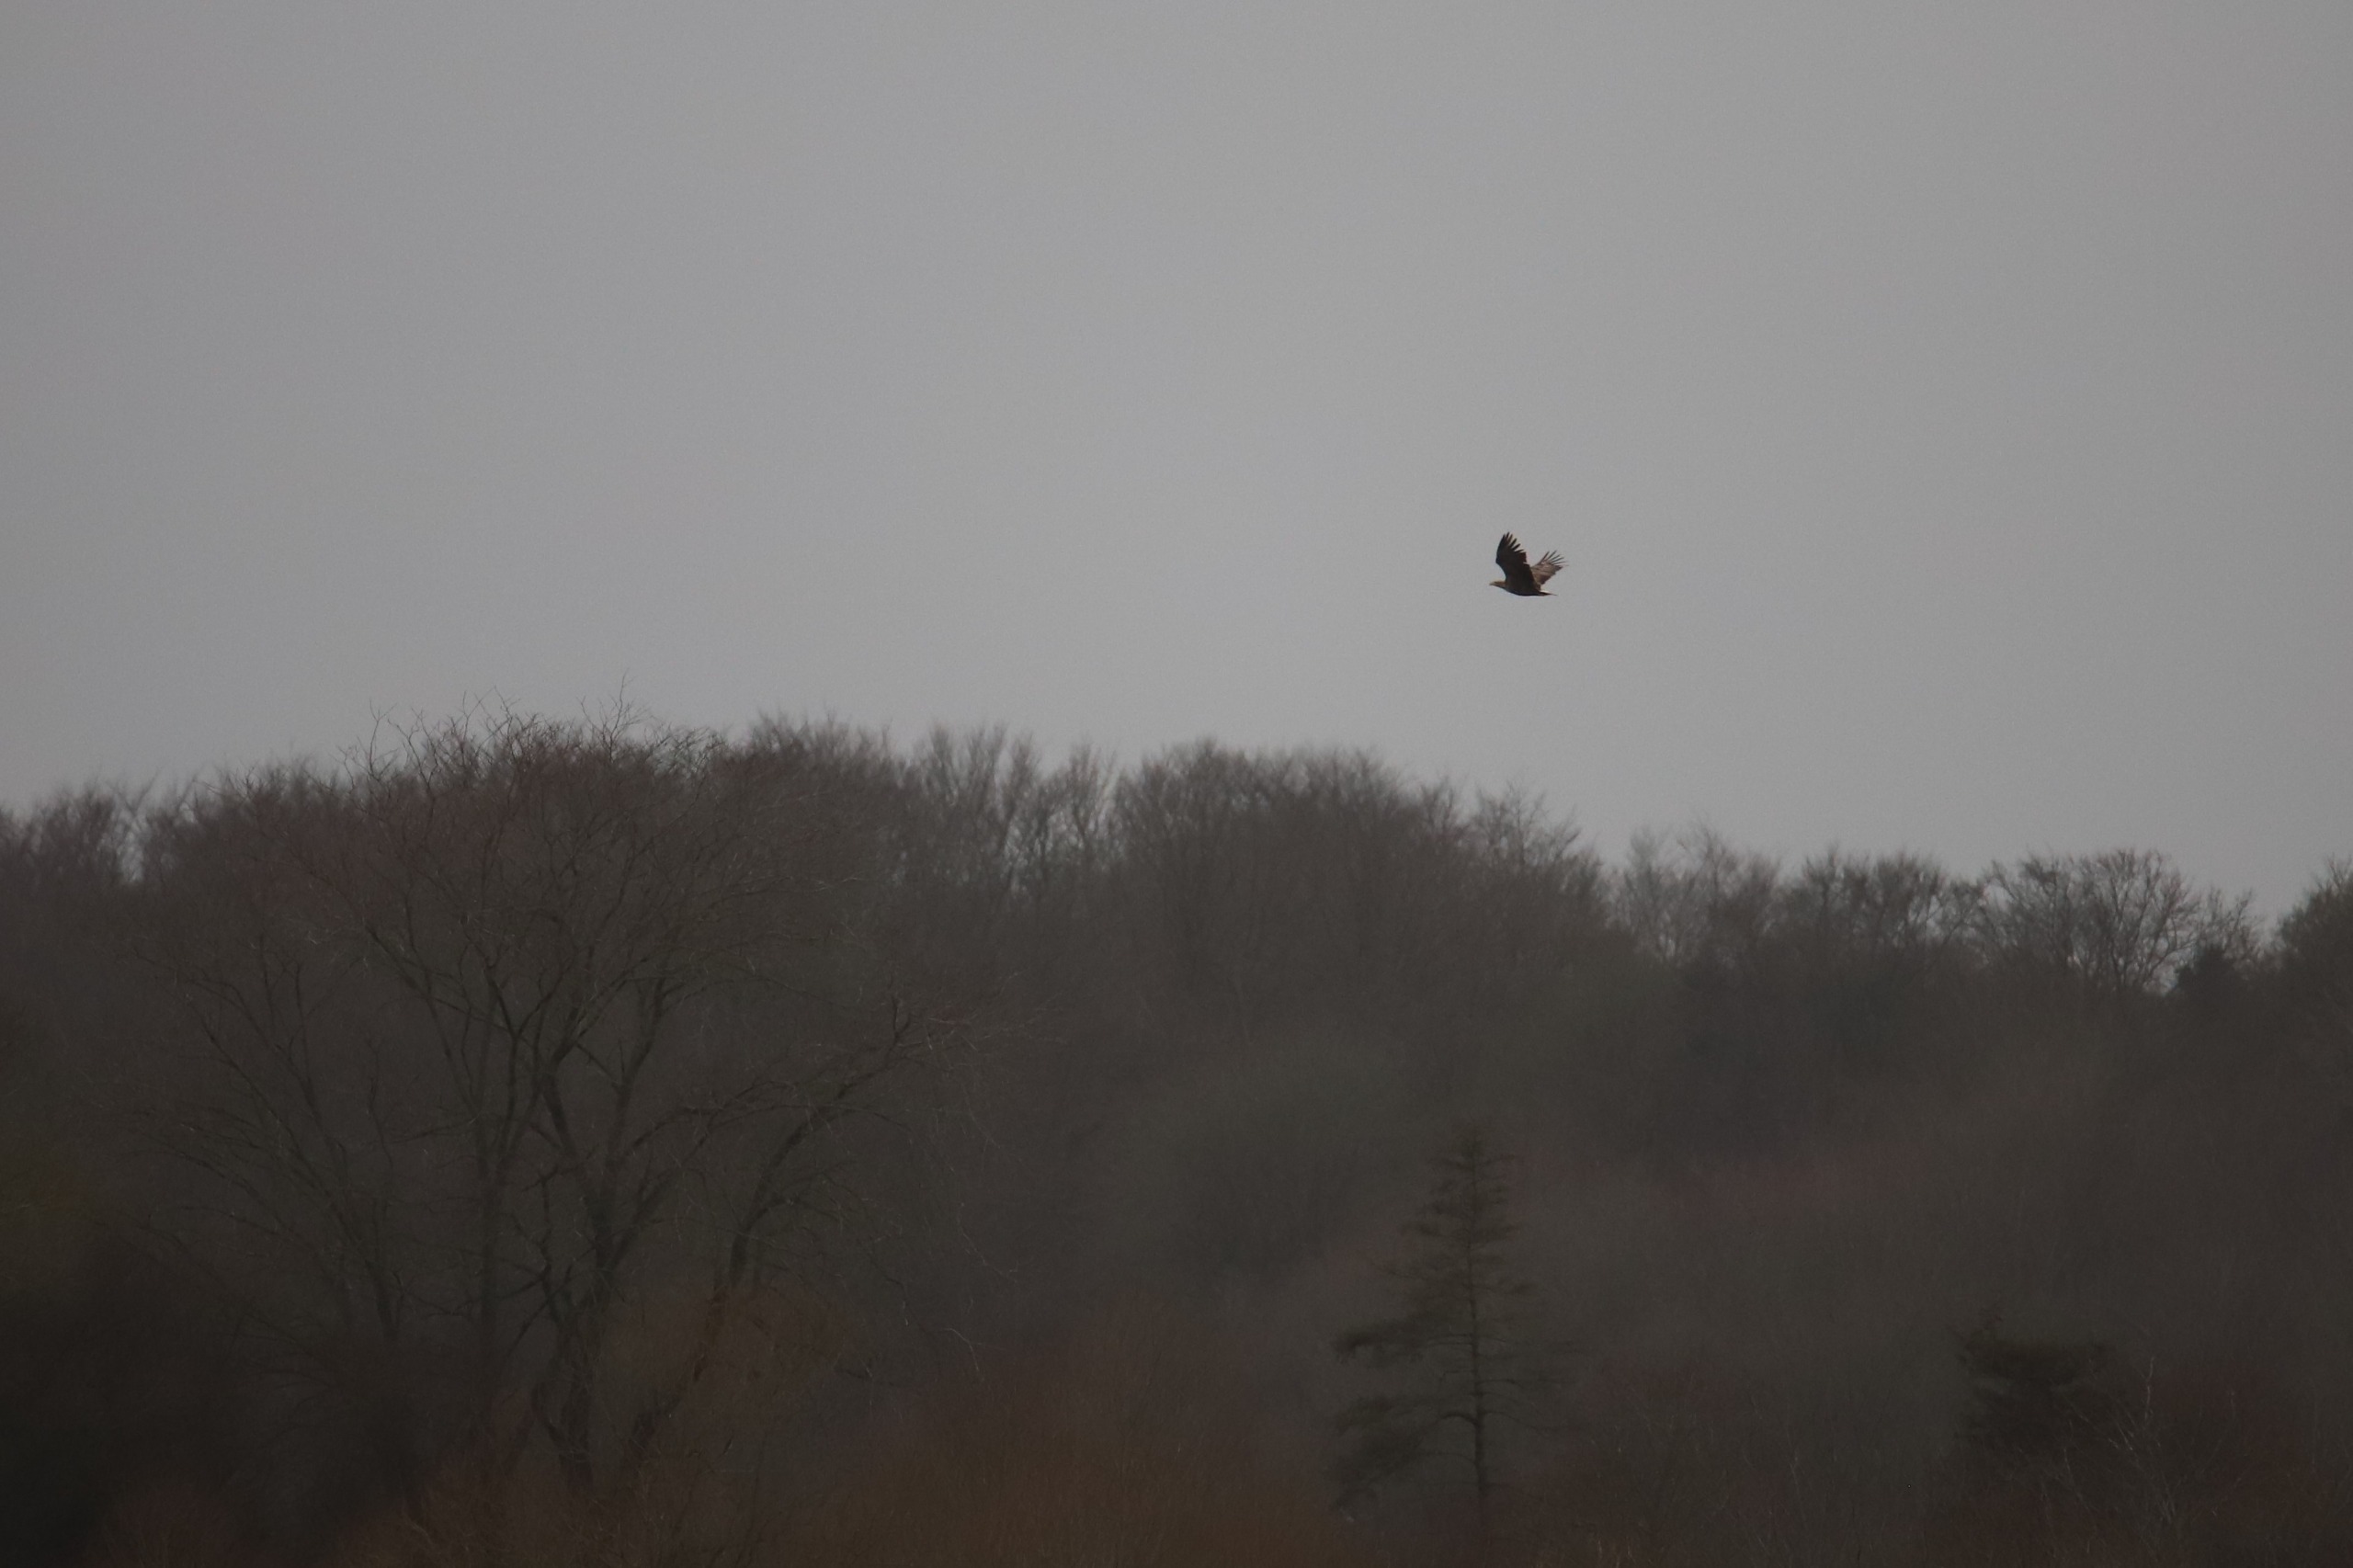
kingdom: Animalia
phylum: Chordata
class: Aves
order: Accipitriformes
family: Accipitridae
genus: Haliaeetus
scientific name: Haliaeetus albicilla
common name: Havørn
